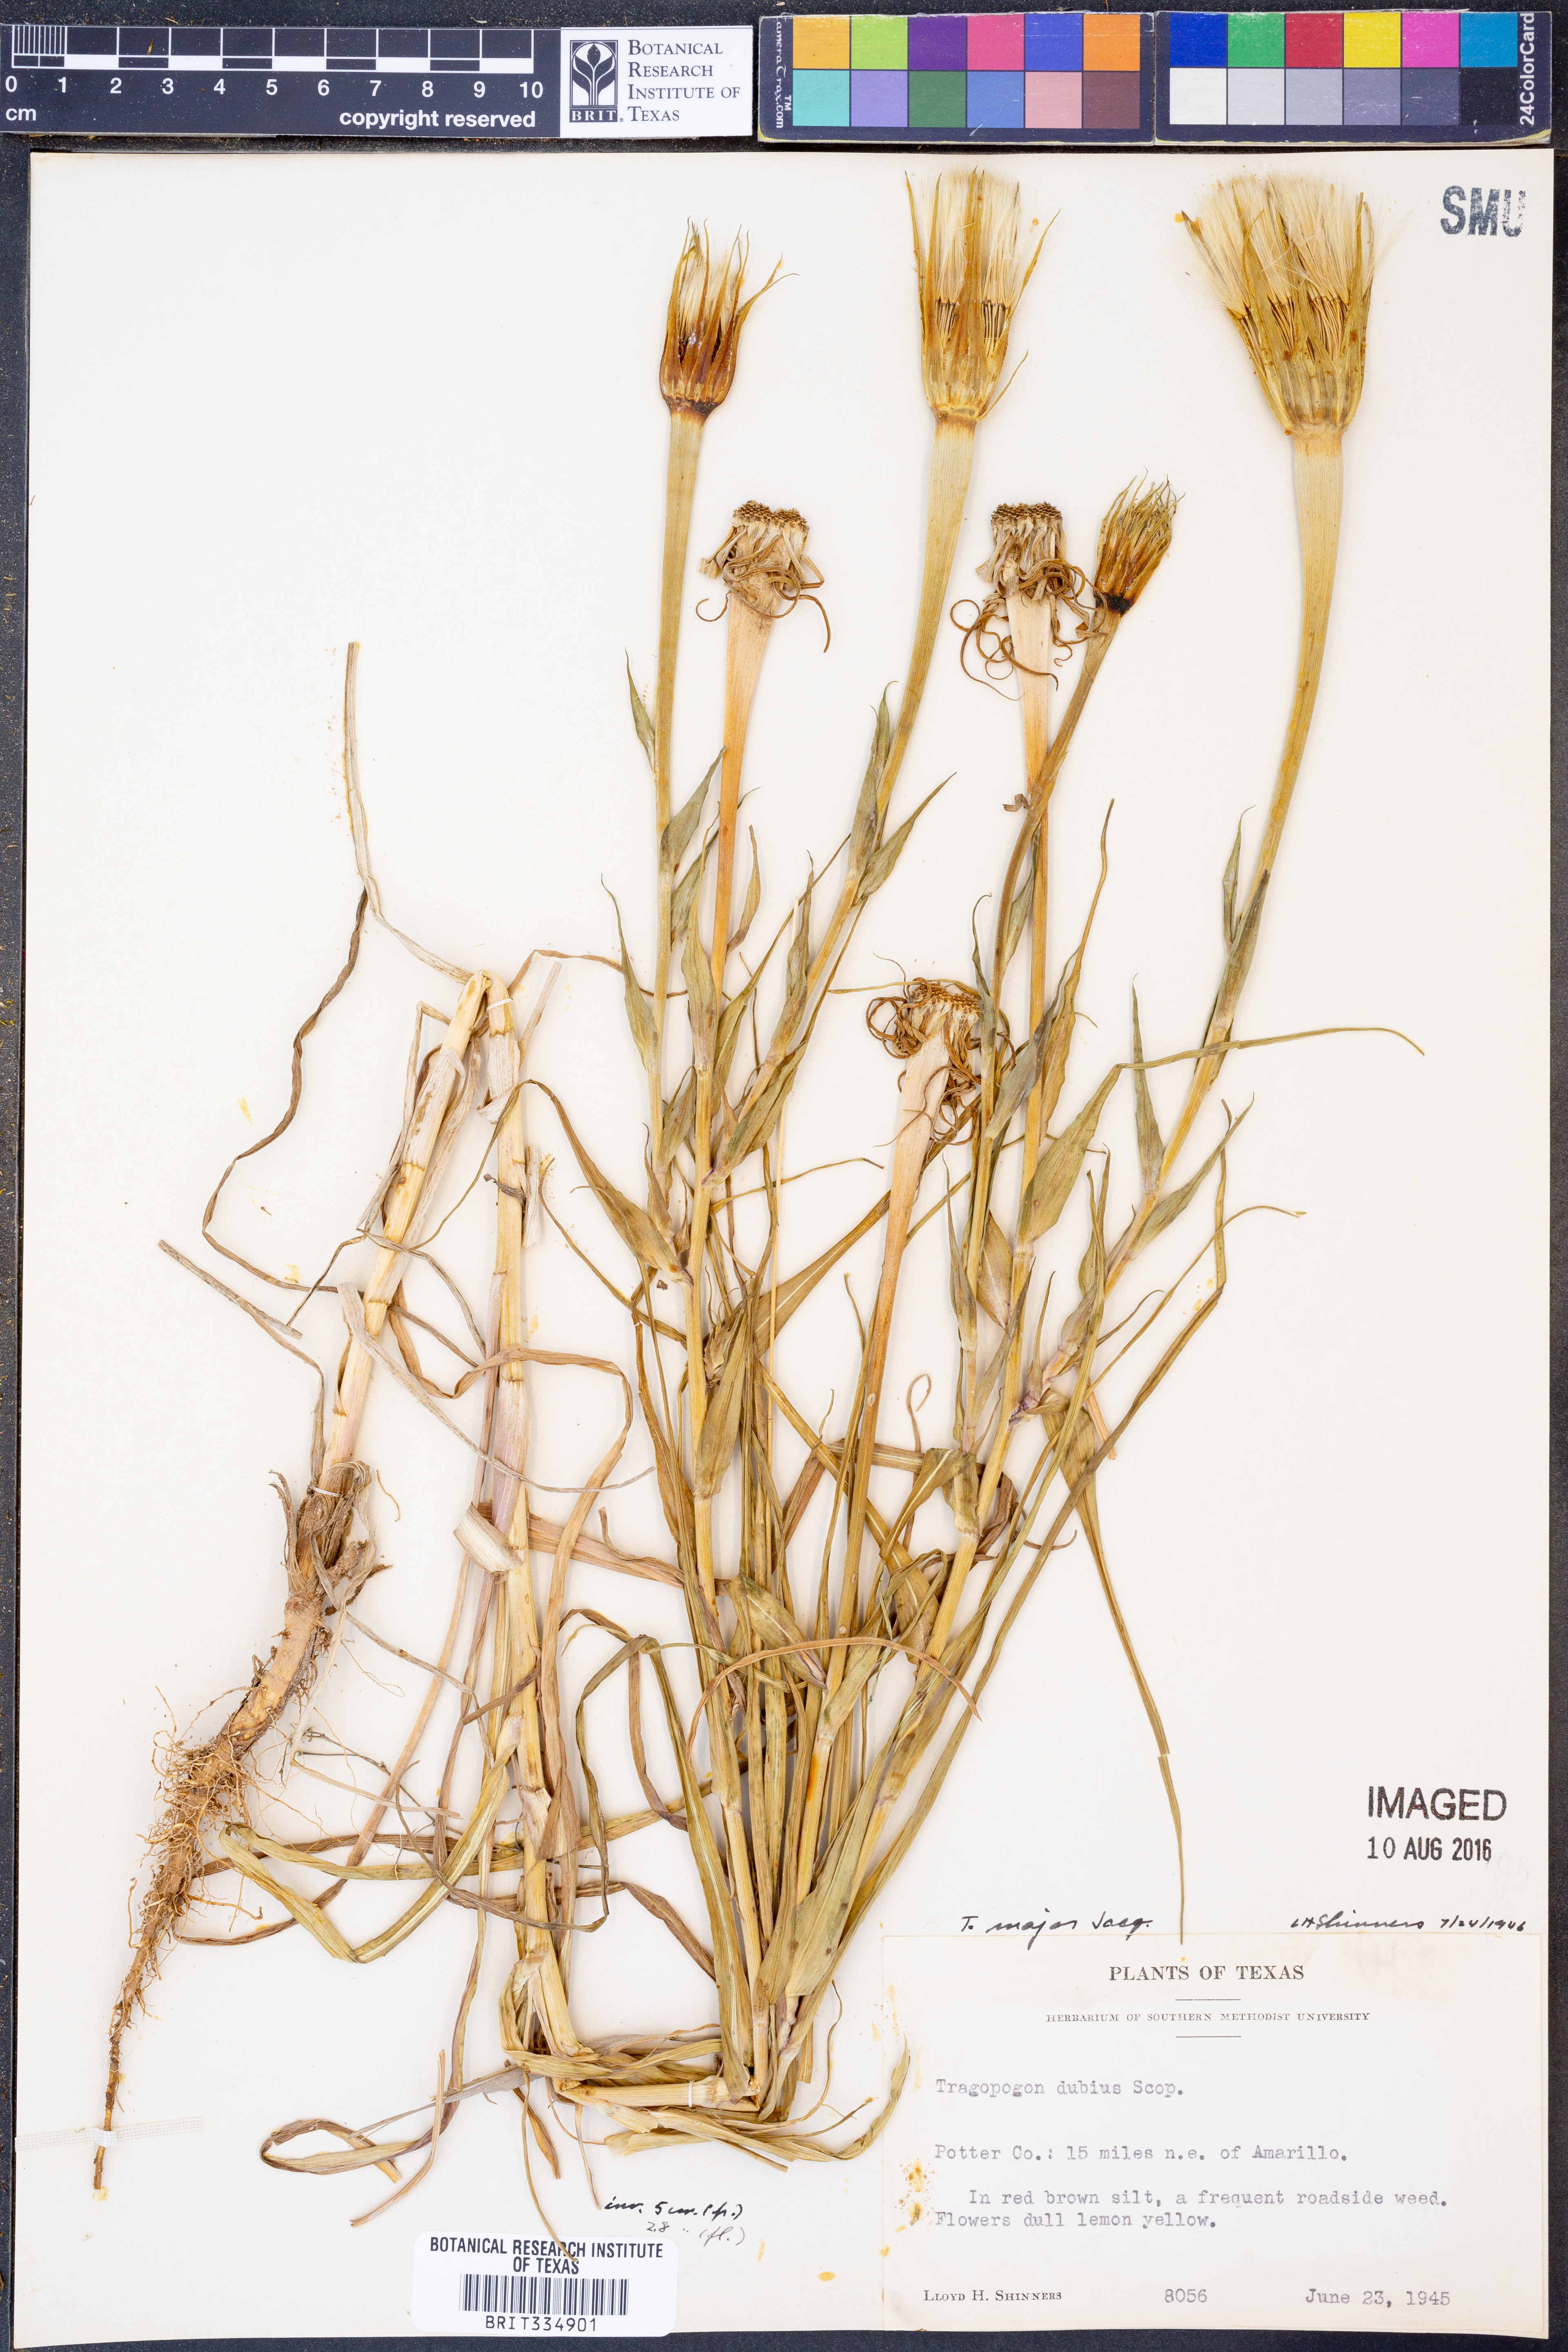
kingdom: Plantae
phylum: Tracheophyta
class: Magnoliopsida
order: Asterales
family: Asteraceae
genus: Tragopogon
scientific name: Tragopogon dubius
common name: Yellow salsify
